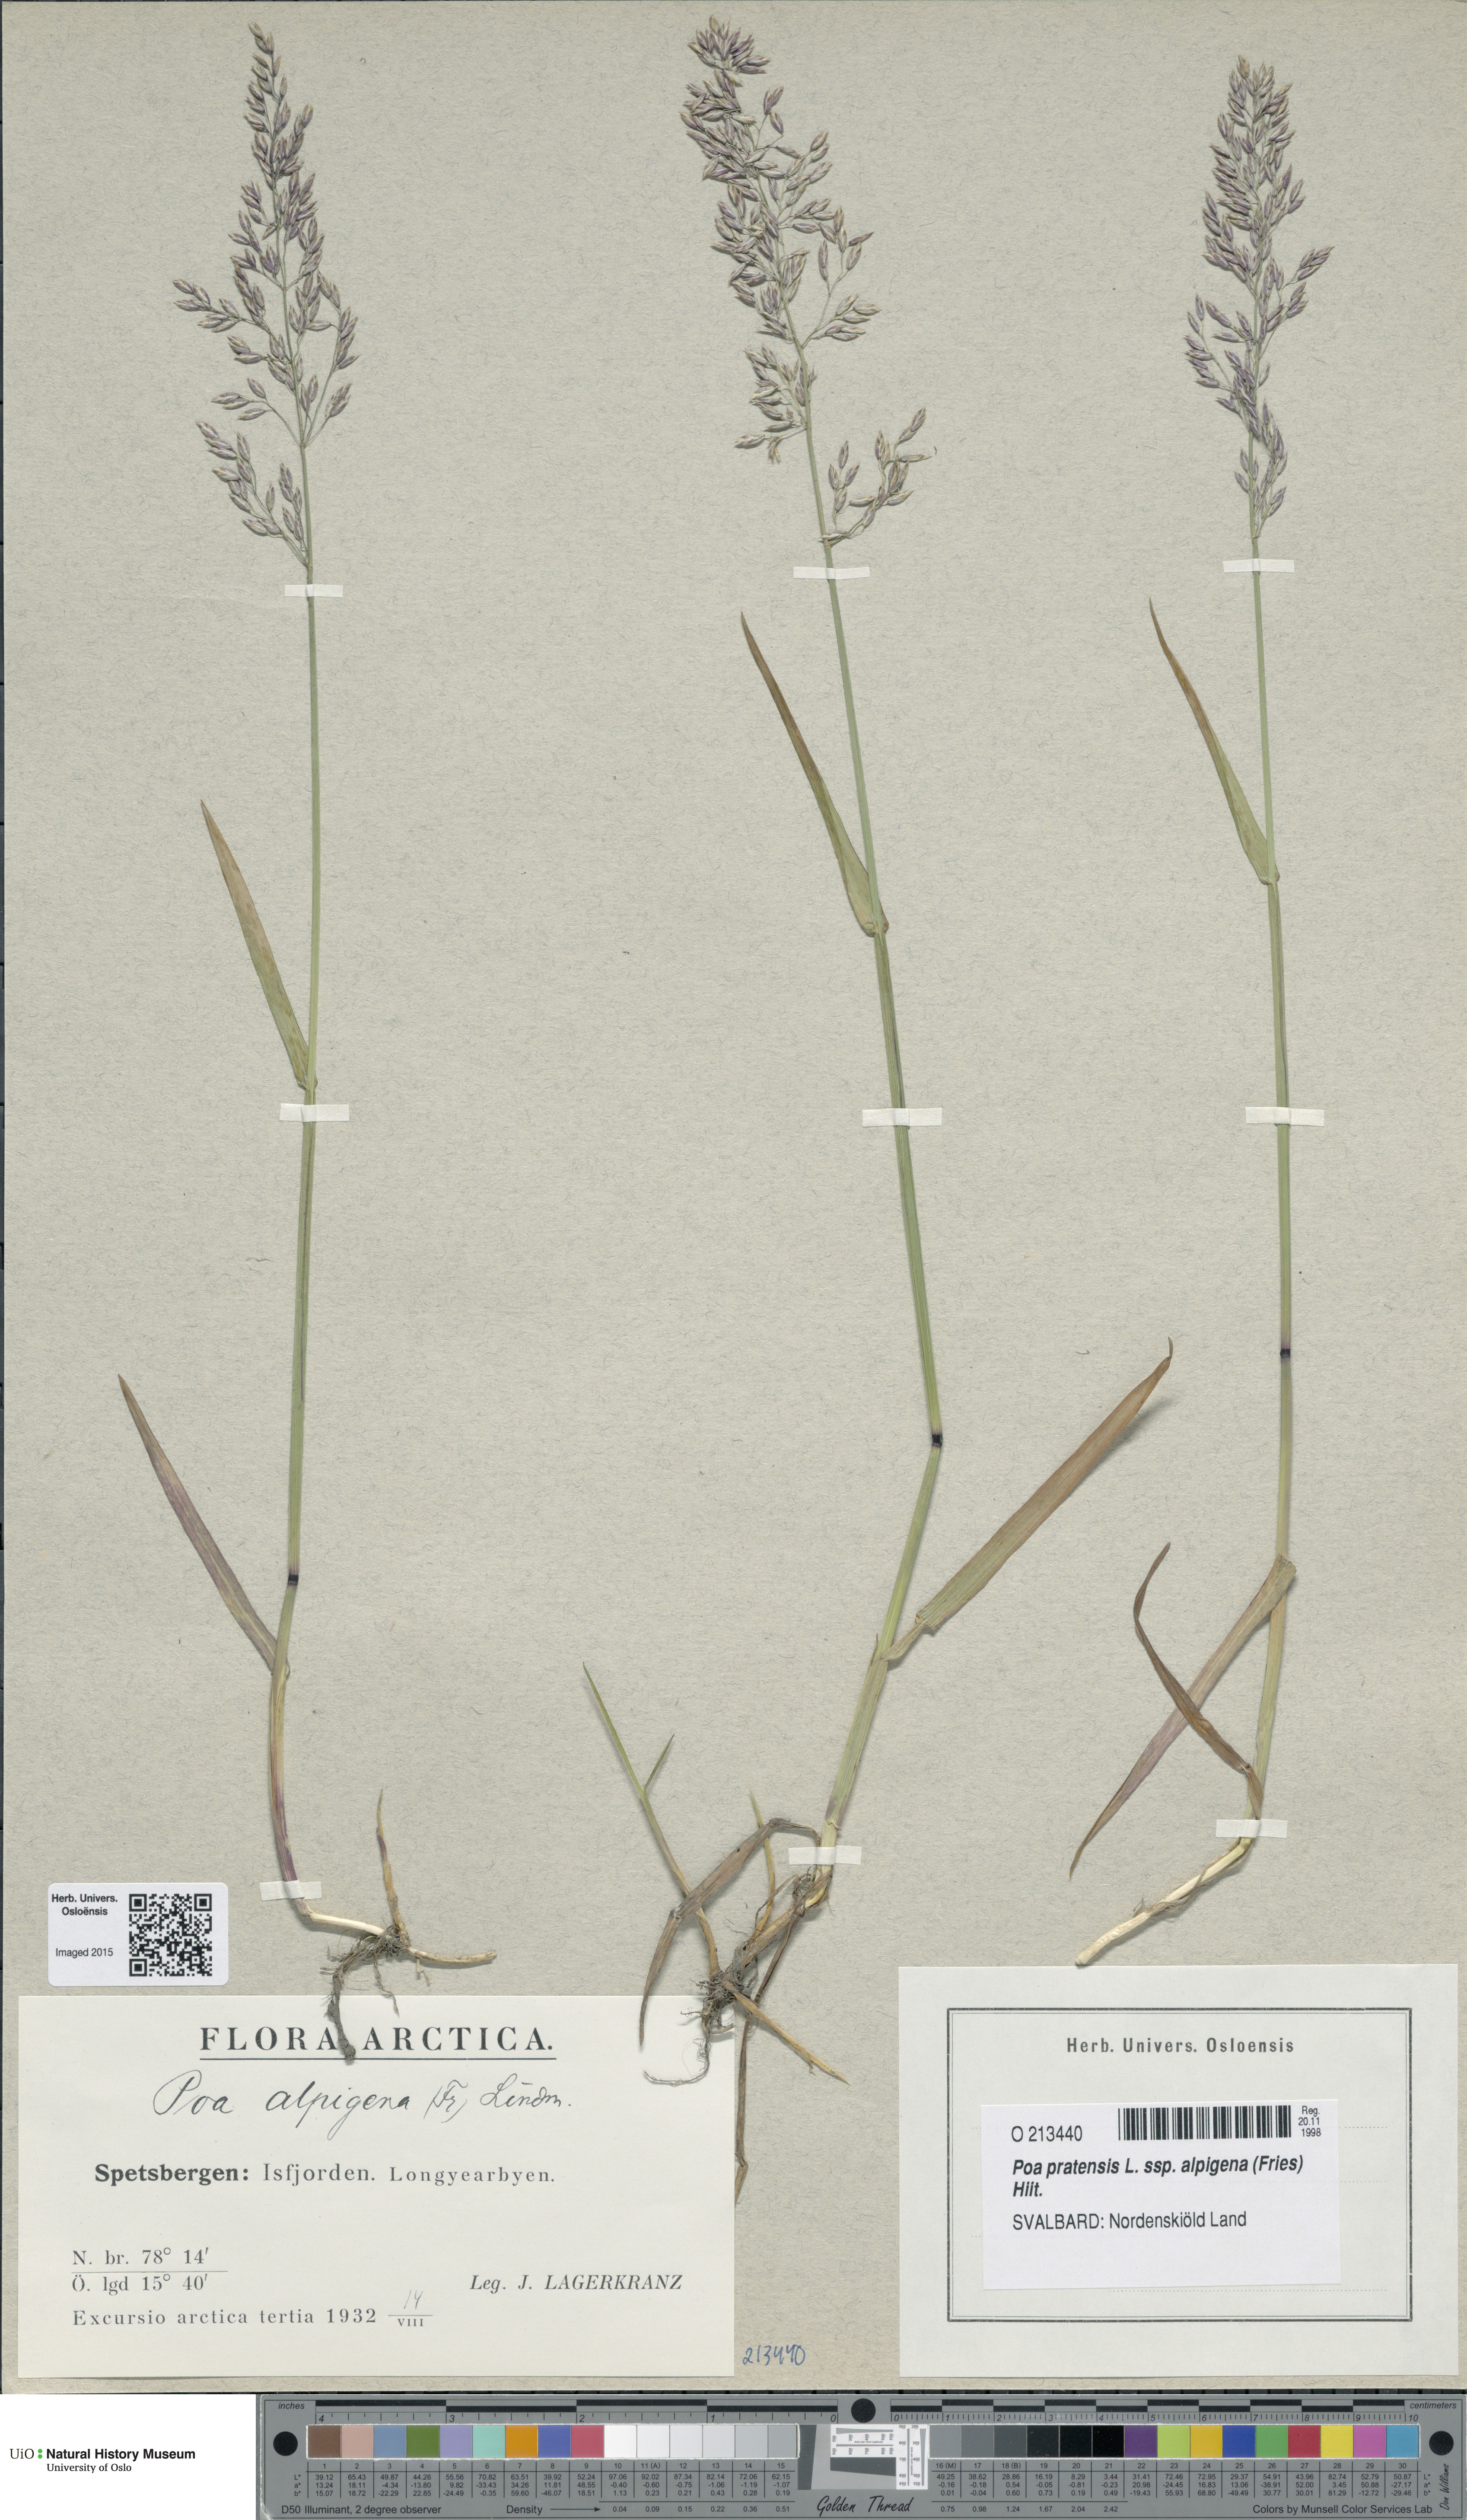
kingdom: Plantae
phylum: Tracheophyta
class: Liliopsida
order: Poales
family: Poaceae
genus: Poa
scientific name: Poa alpigena
